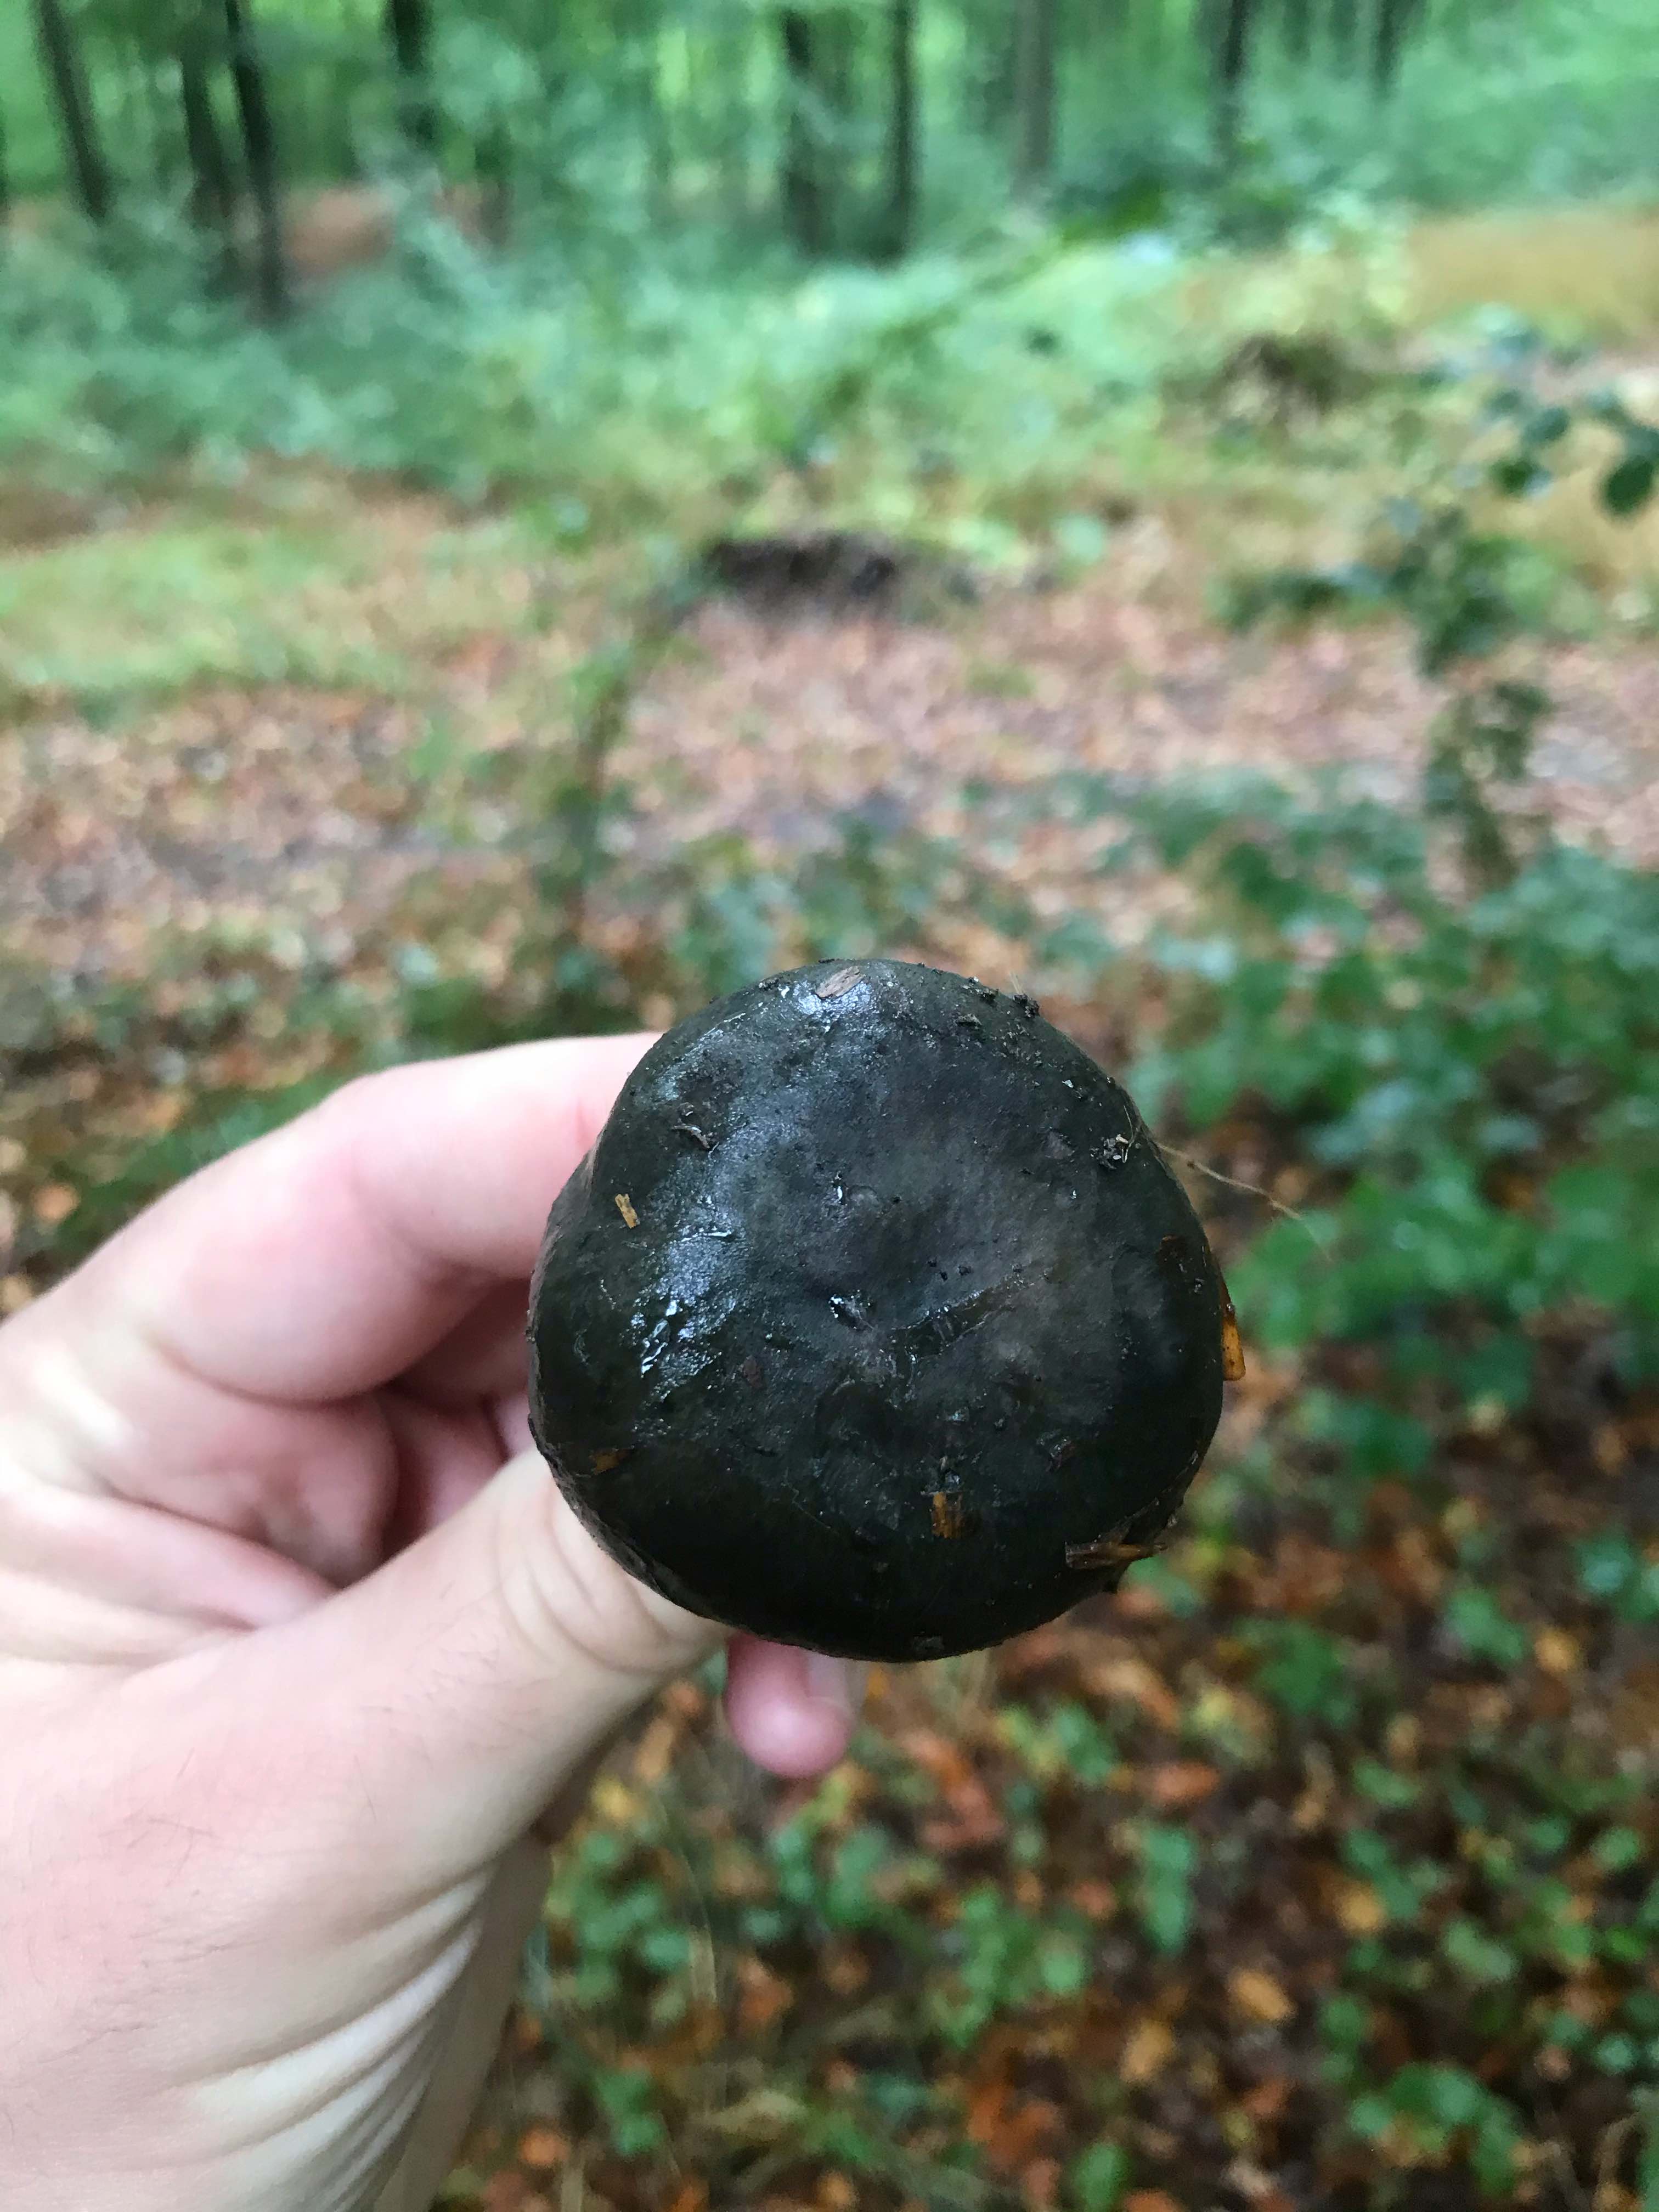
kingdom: Fungi
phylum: Basidiomycota
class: Agaricomycetes
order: Russulales
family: Russulaceae
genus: Russula
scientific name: Russula
